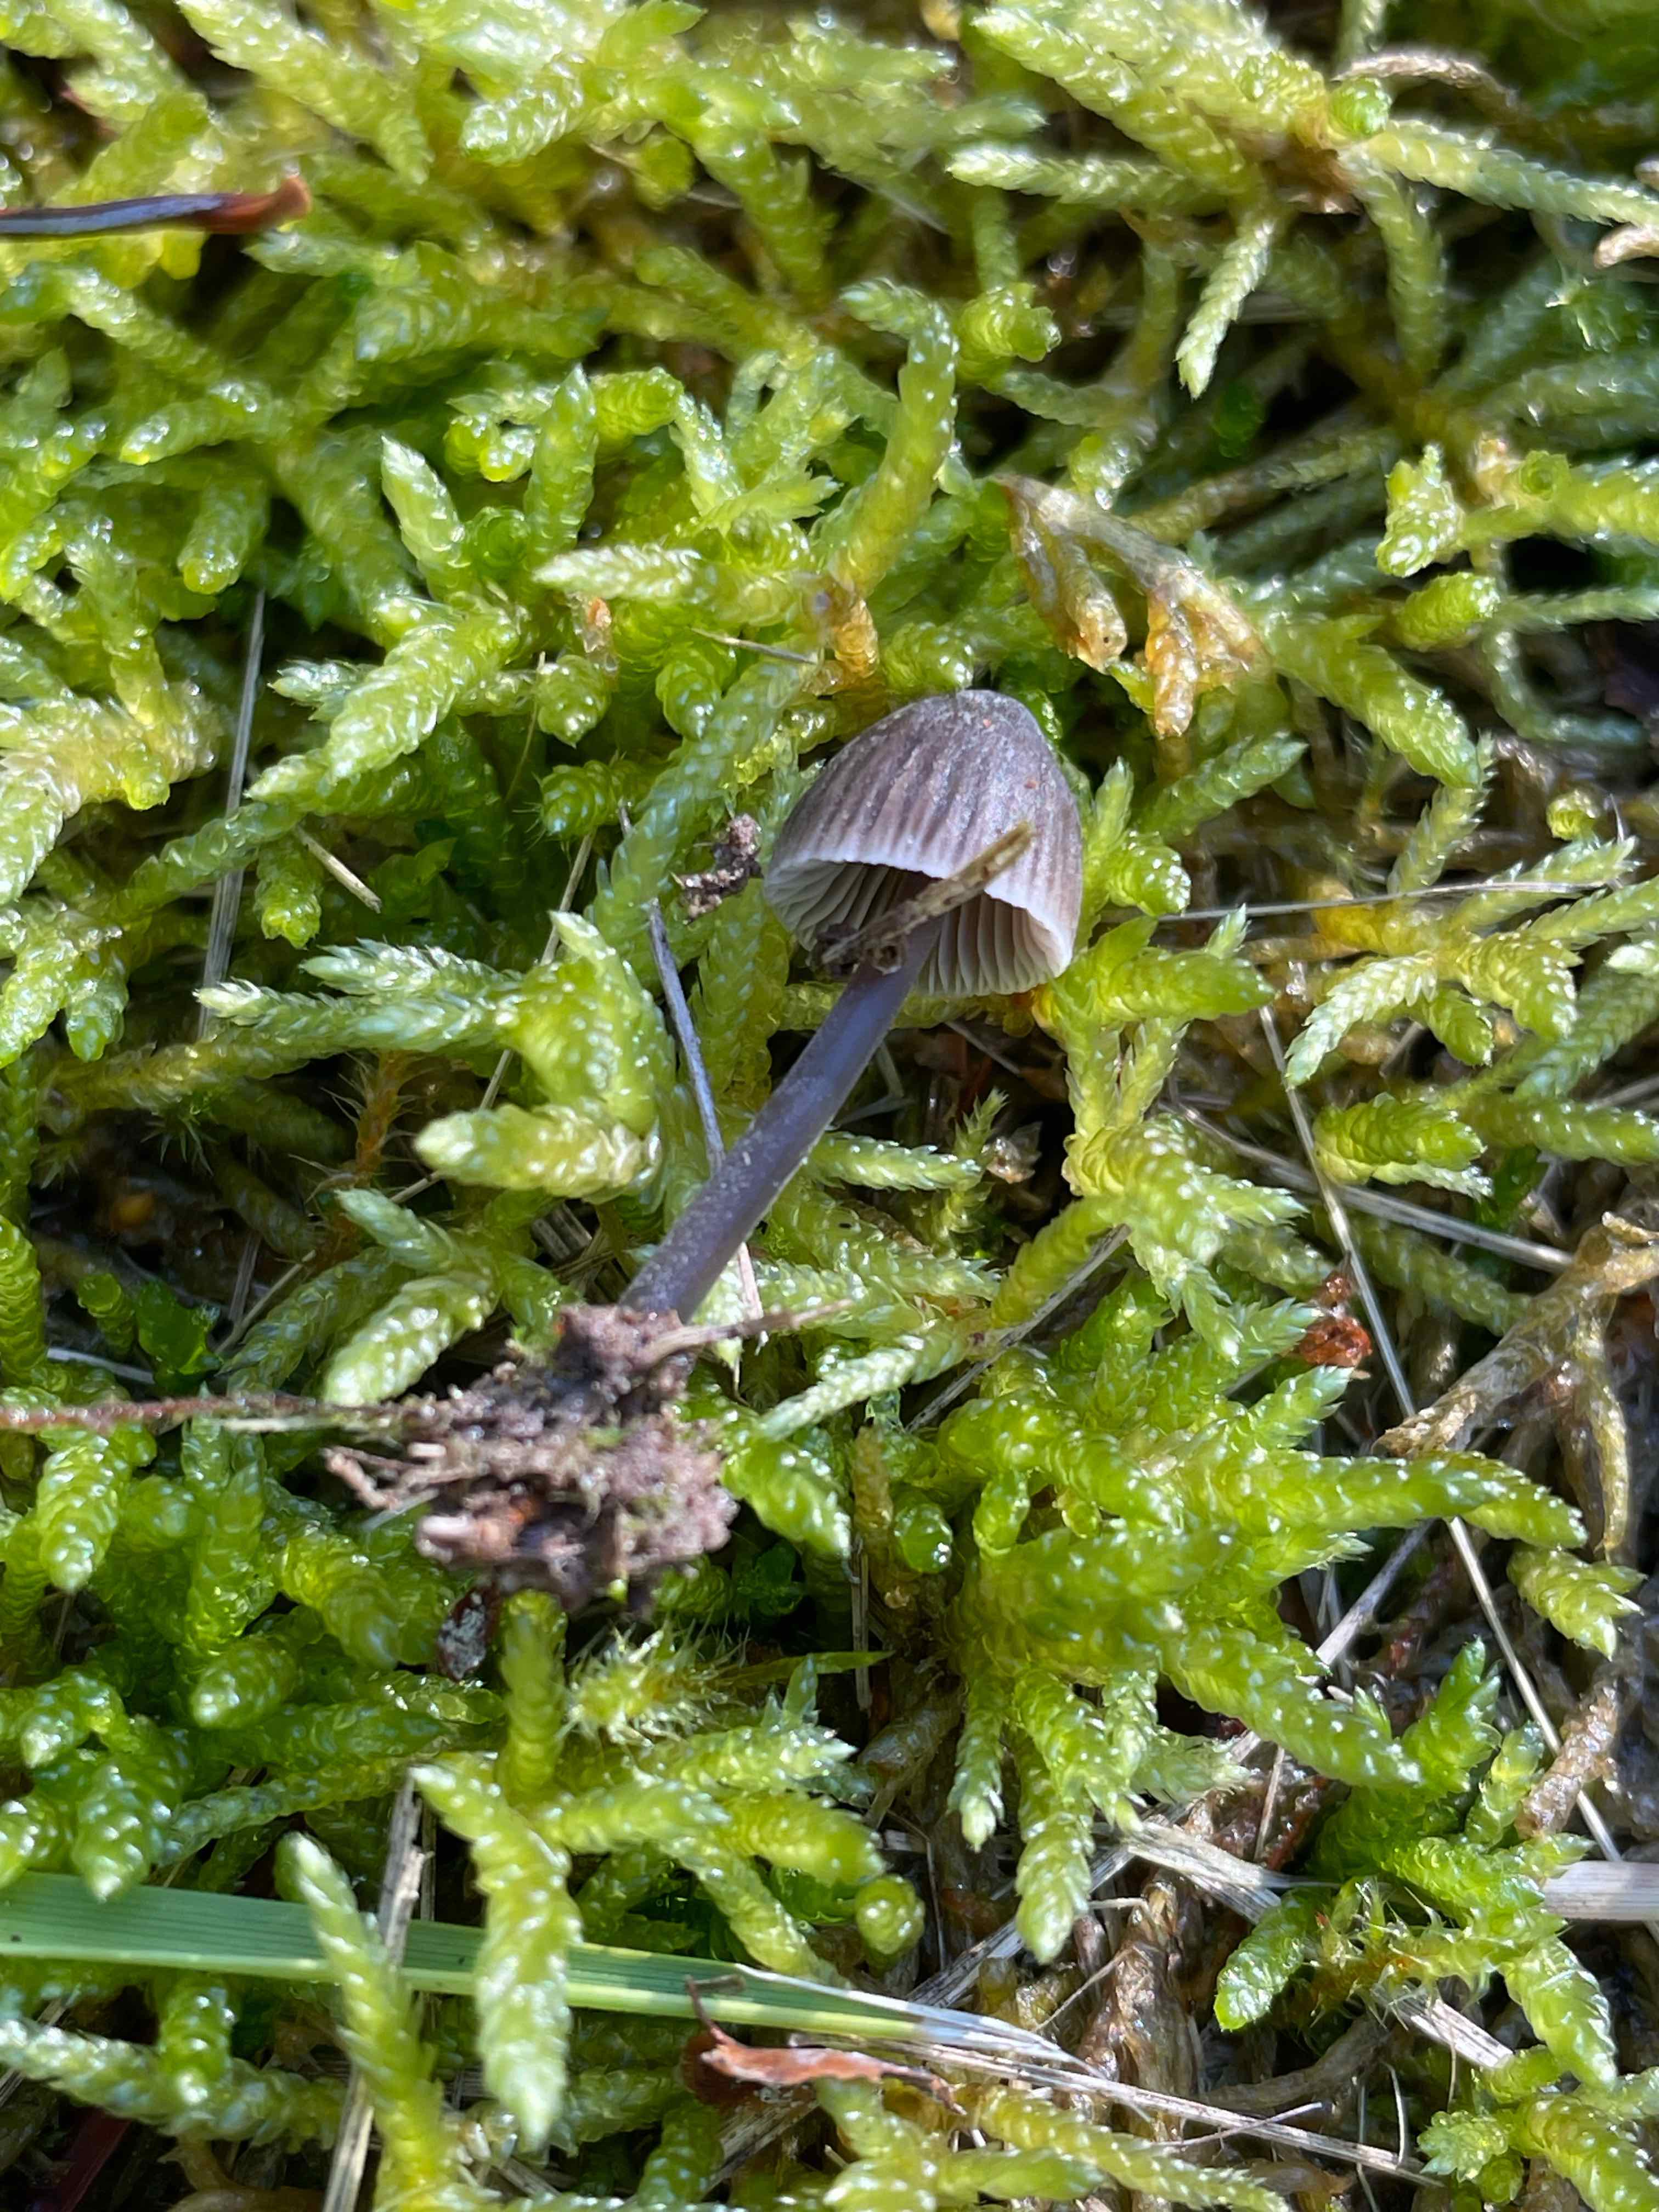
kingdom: Fungi
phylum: Basidiomycota
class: Agaricomycetes
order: Agaricales
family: Mycenaceae
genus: Mycena
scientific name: Mycena leptocephala
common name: klor-huesvamp
